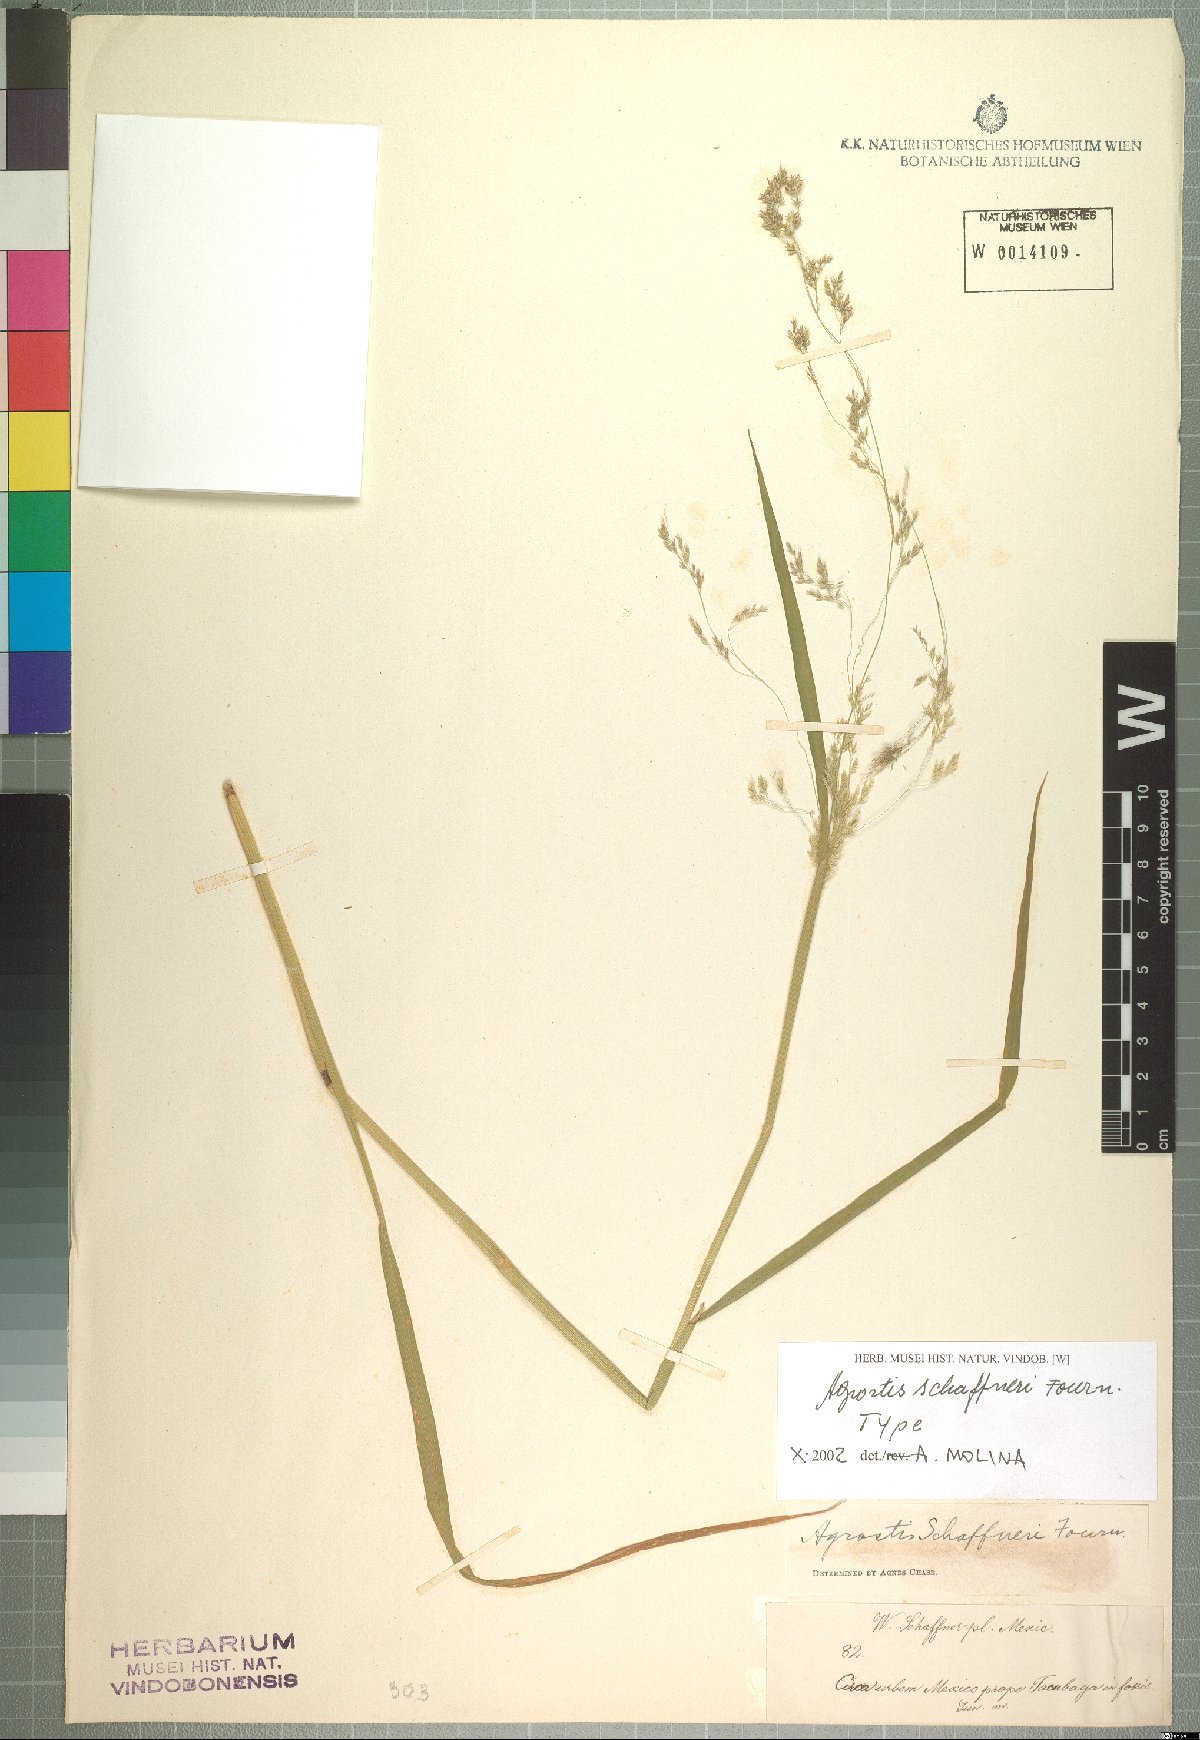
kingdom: Plantae
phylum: Tracheophyta
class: Liliopsida
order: Poales
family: Poaceae
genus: Agrostis
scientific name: Agrostis schaffneri
